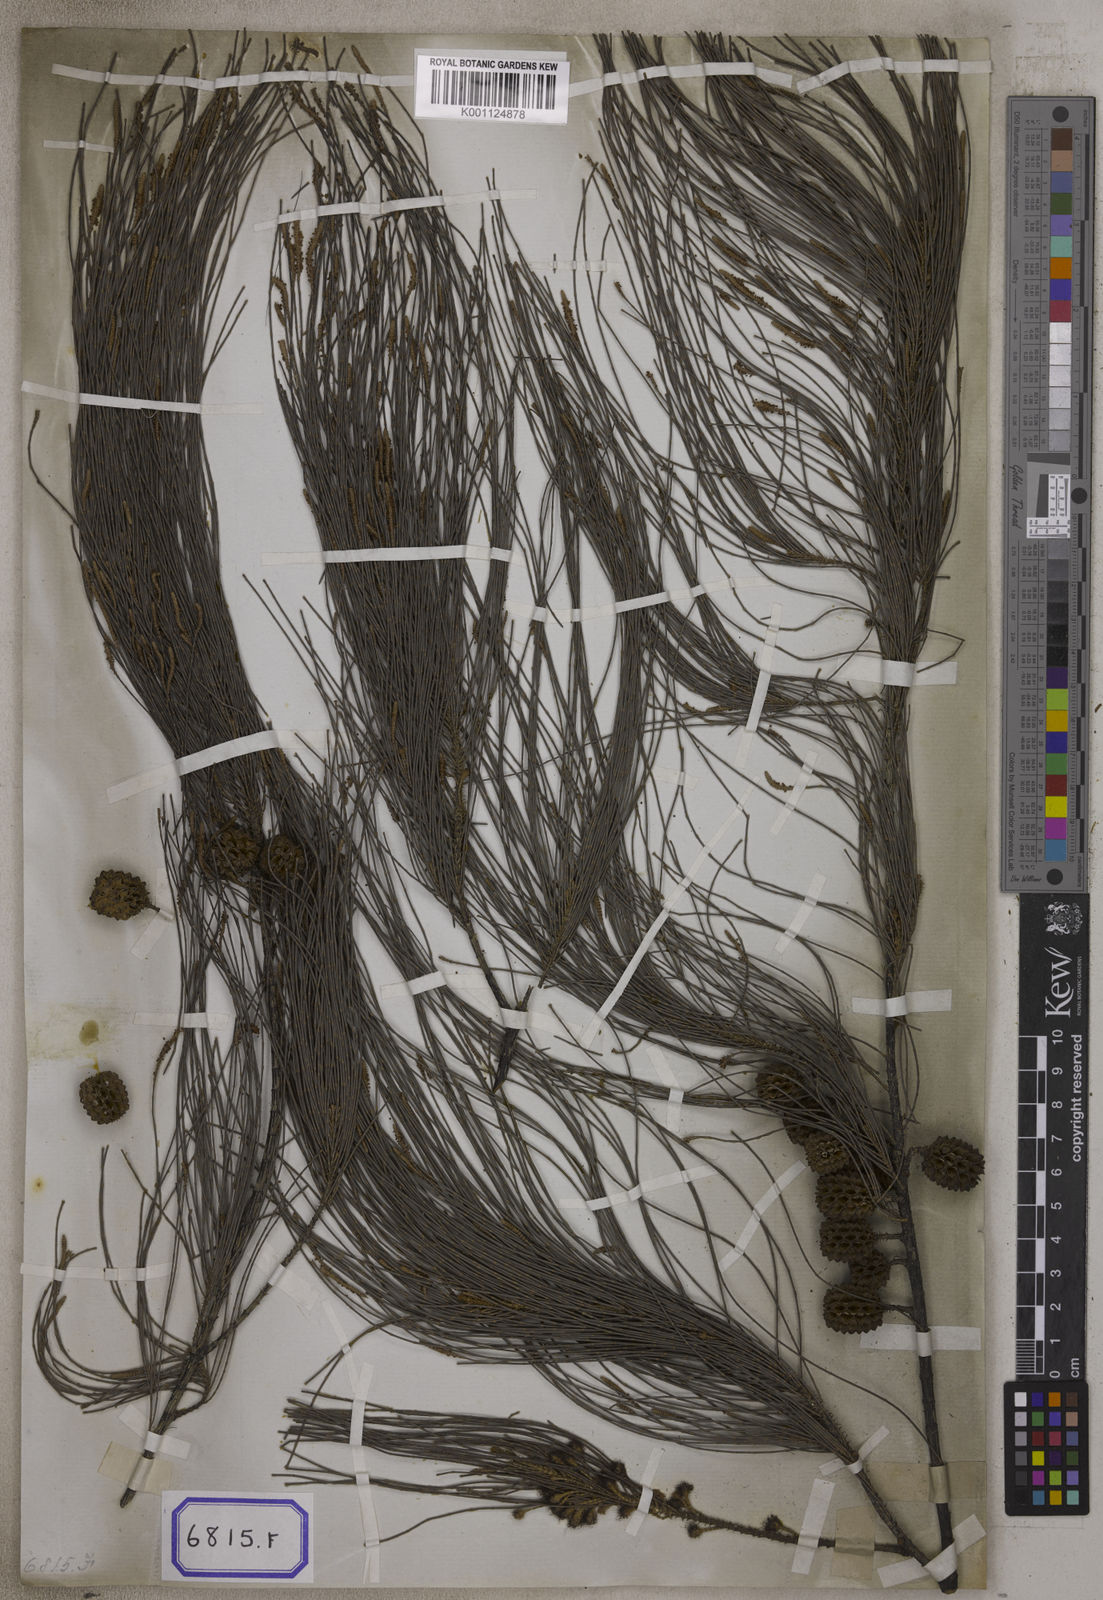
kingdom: Plantae
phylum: Tracheophyta
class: Magnoliopsida
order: Fagales
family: Casuarinaceae
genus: Casuarina
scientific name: Casuarina
